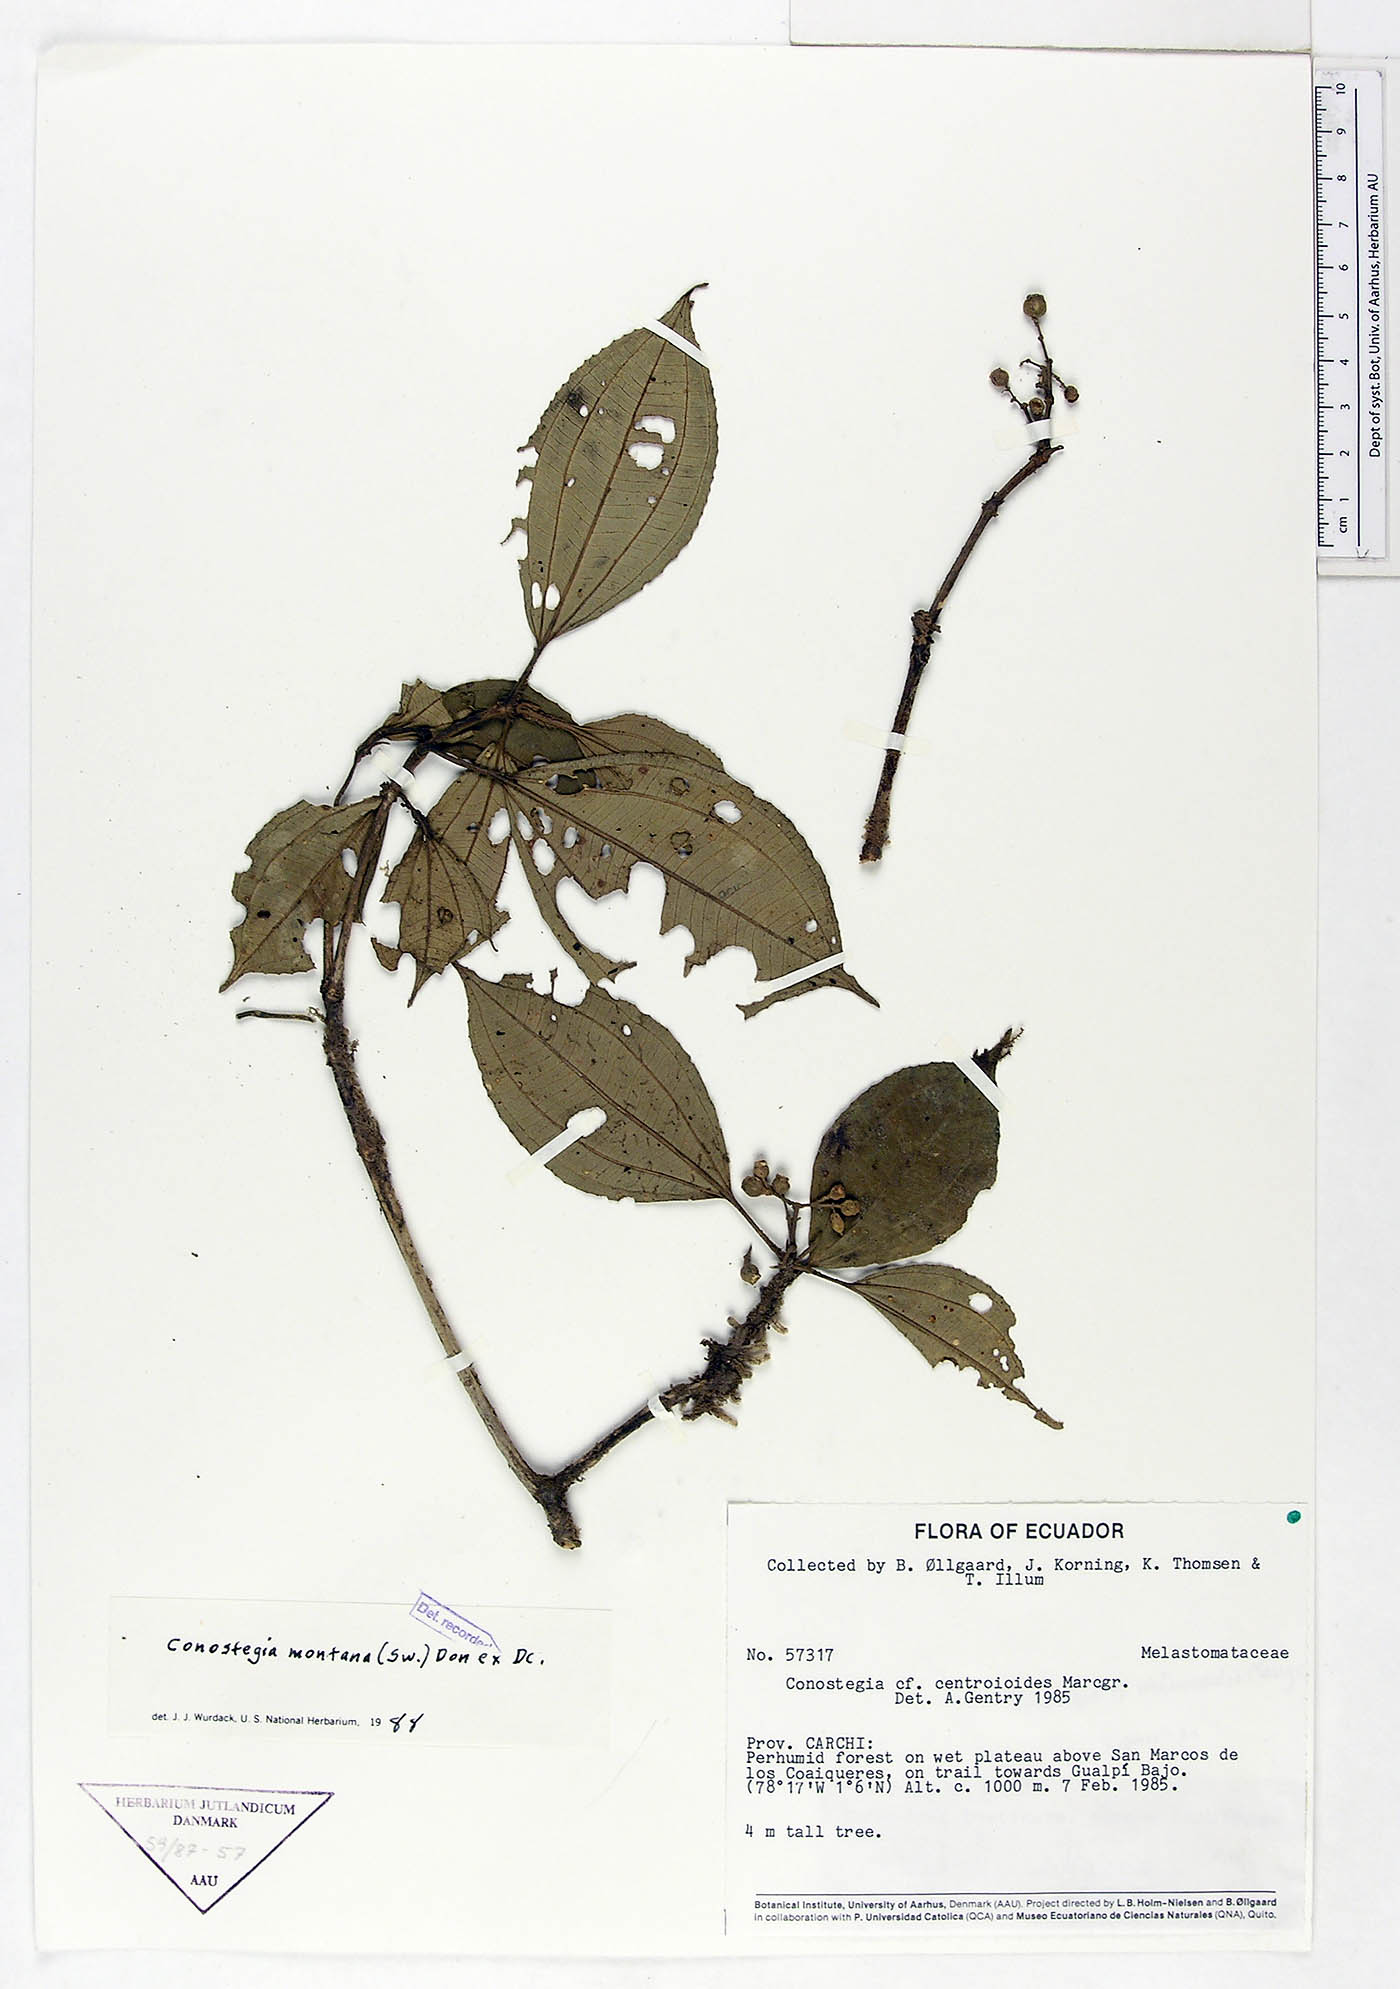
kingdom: Plantae
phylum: Tracheophyta
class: Magnoliopsida
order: Myrtales
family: Melastomataceae
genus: Miconia
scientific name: Miconia cooperi
